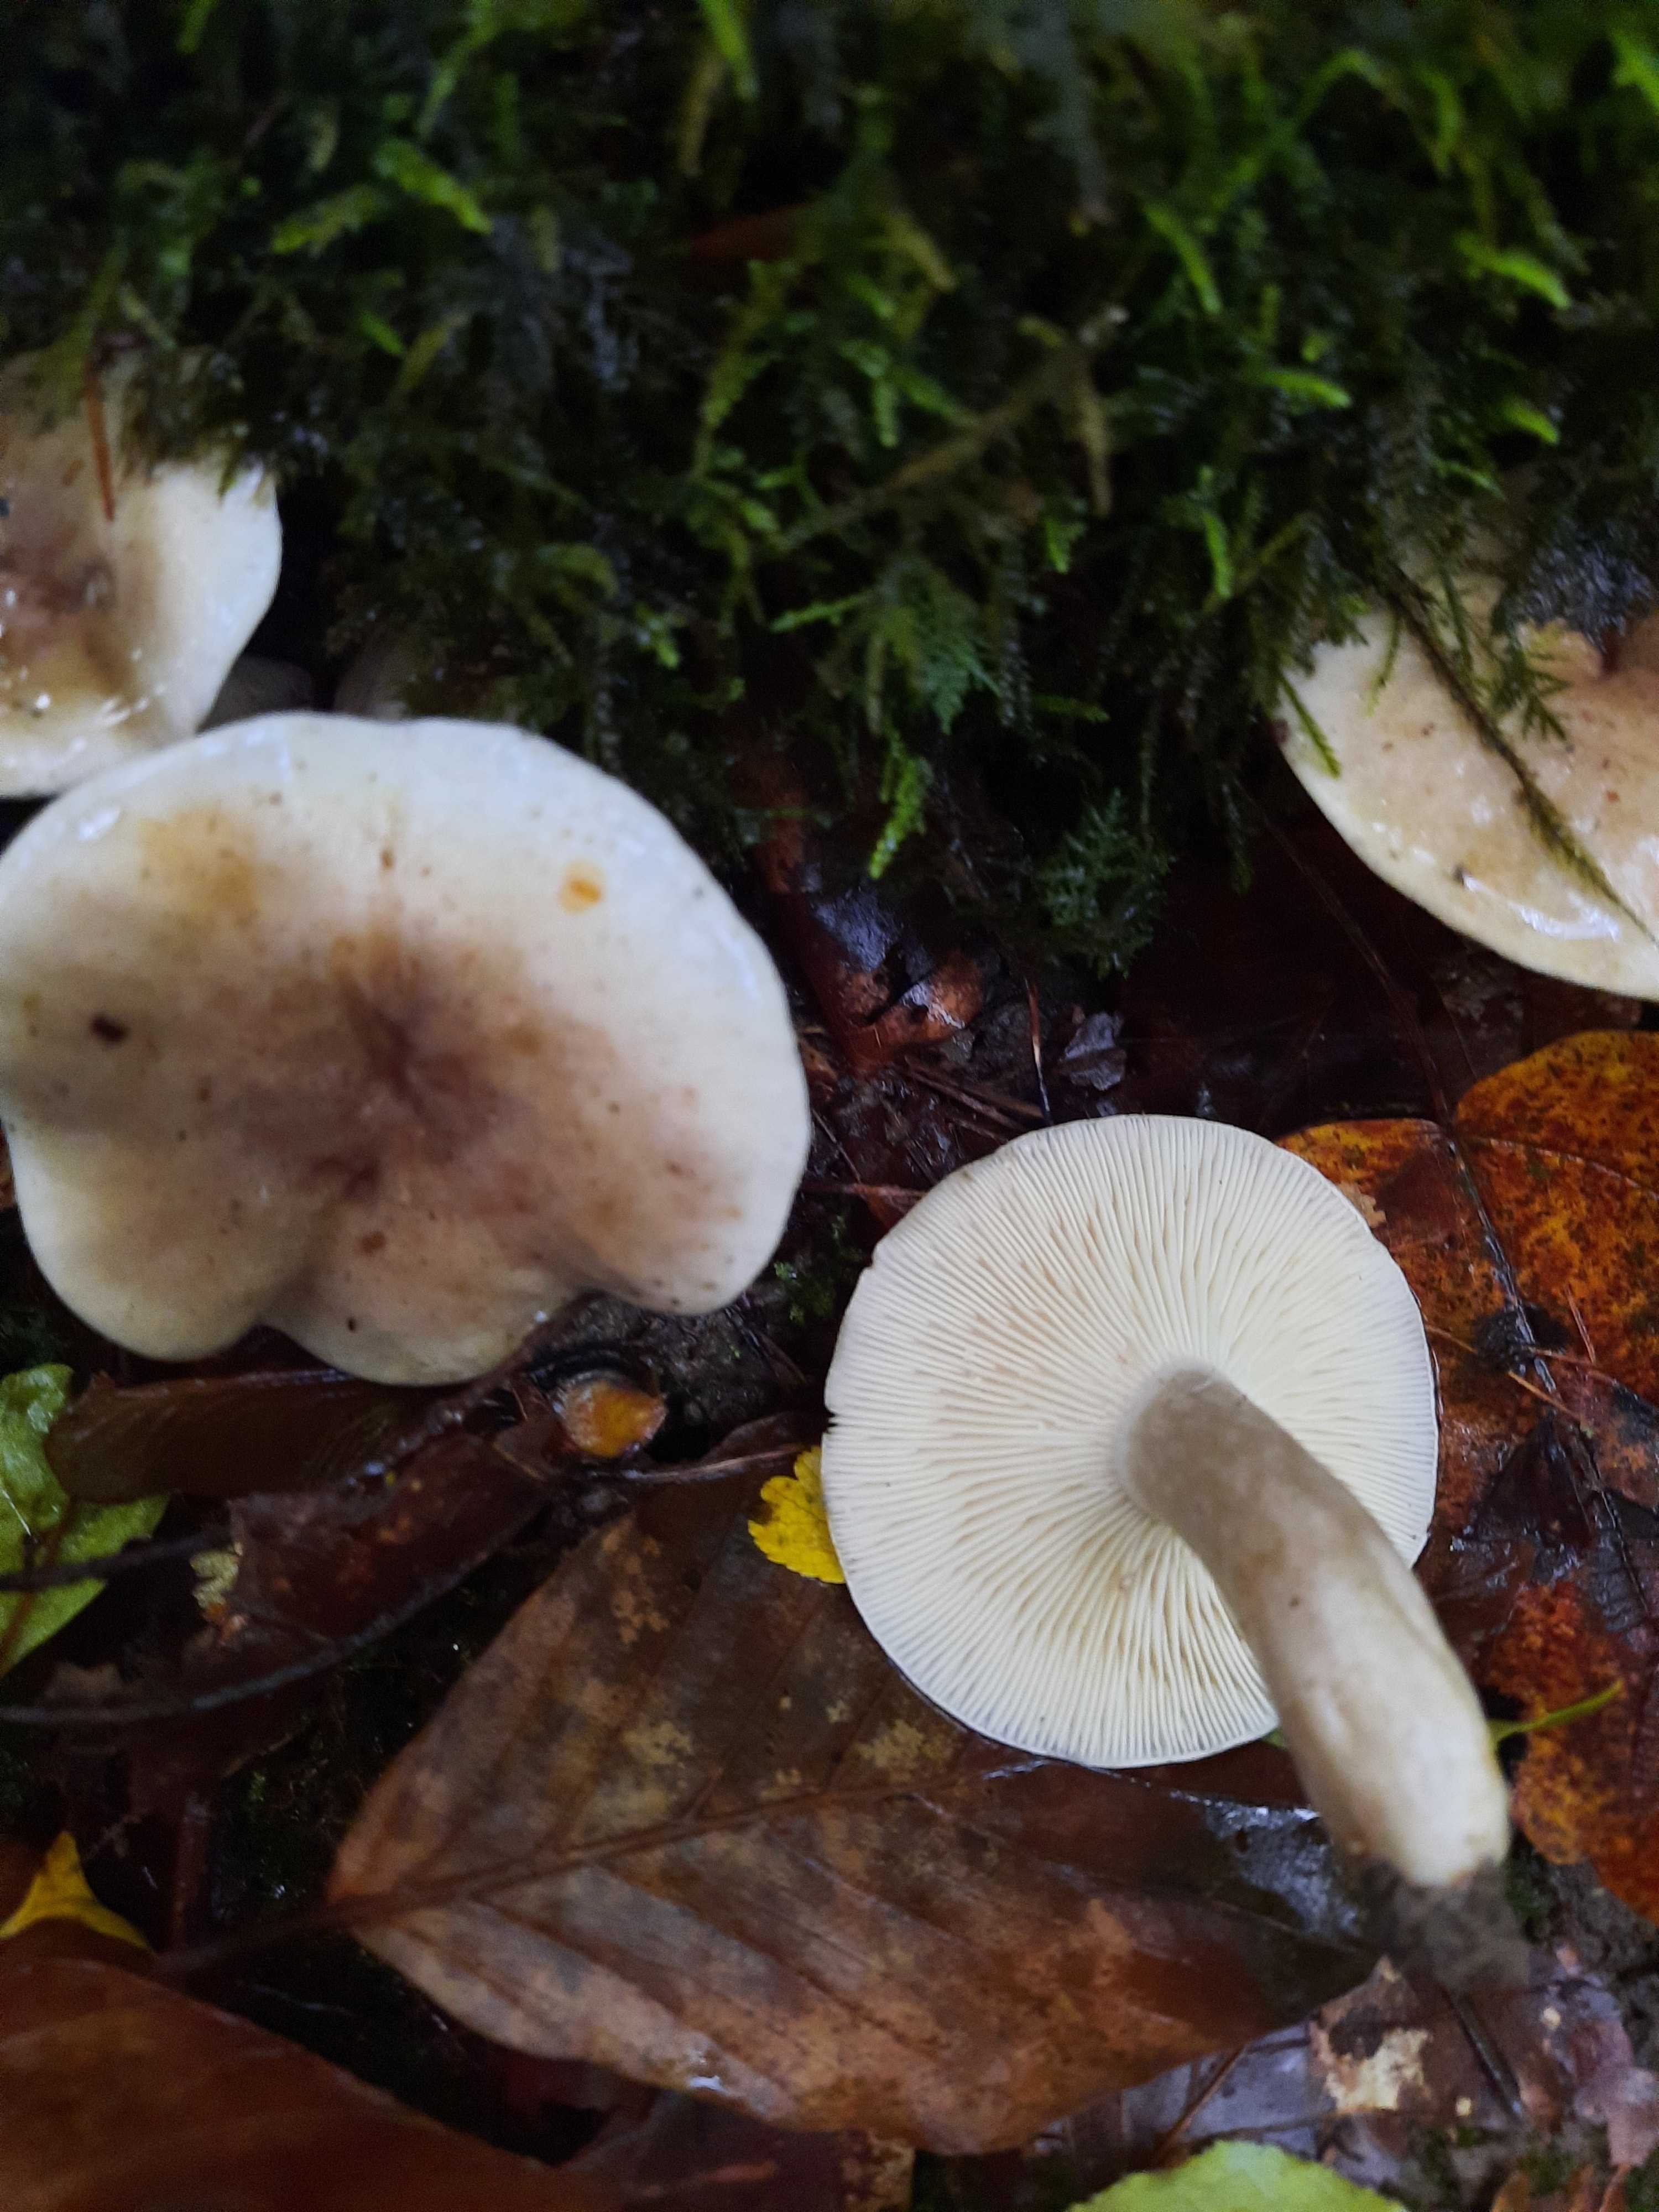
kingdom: Fungi
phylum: Basidiomycota
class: Agaricomycetes
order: Russulales
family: Russulaceae
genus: Lactarius
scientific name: Lactarius fluens
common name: lysrandet mælkehat
